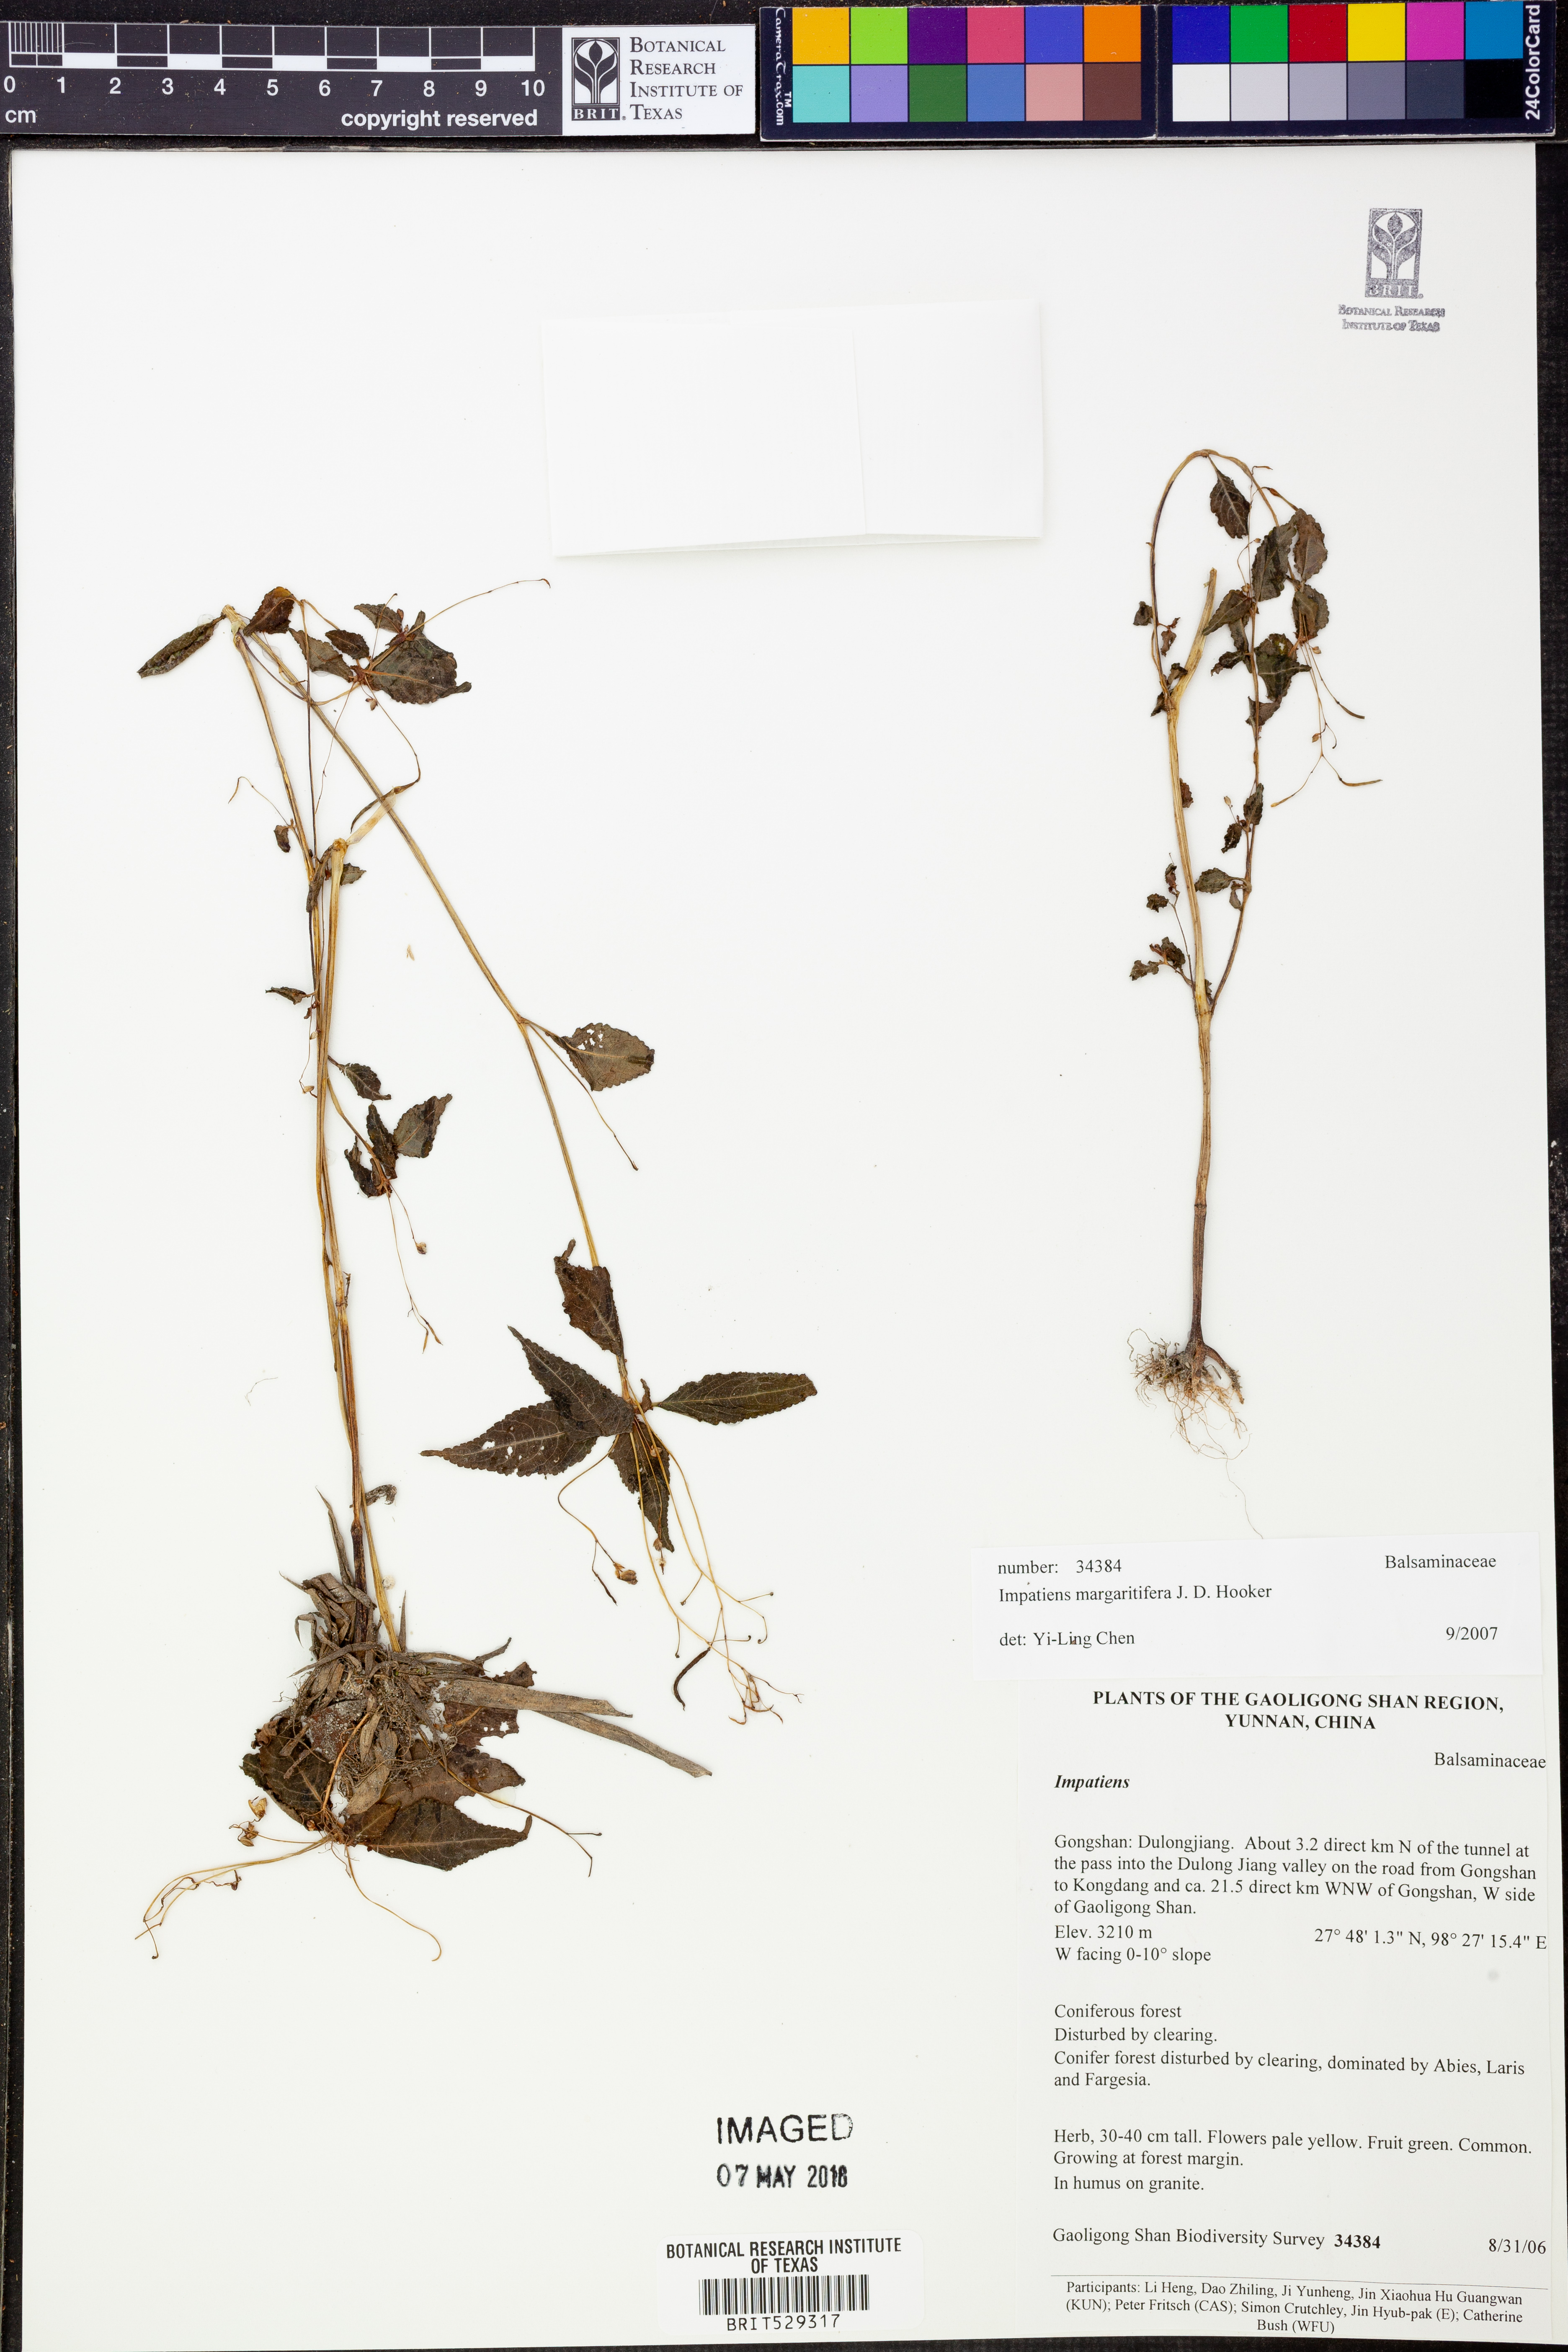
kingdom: Plantae
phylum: Tracheophyta
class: Magnoliopsida
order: Ericales
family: Balsaminaceae
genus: Impatiens
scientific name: Impatiens margaritifera
